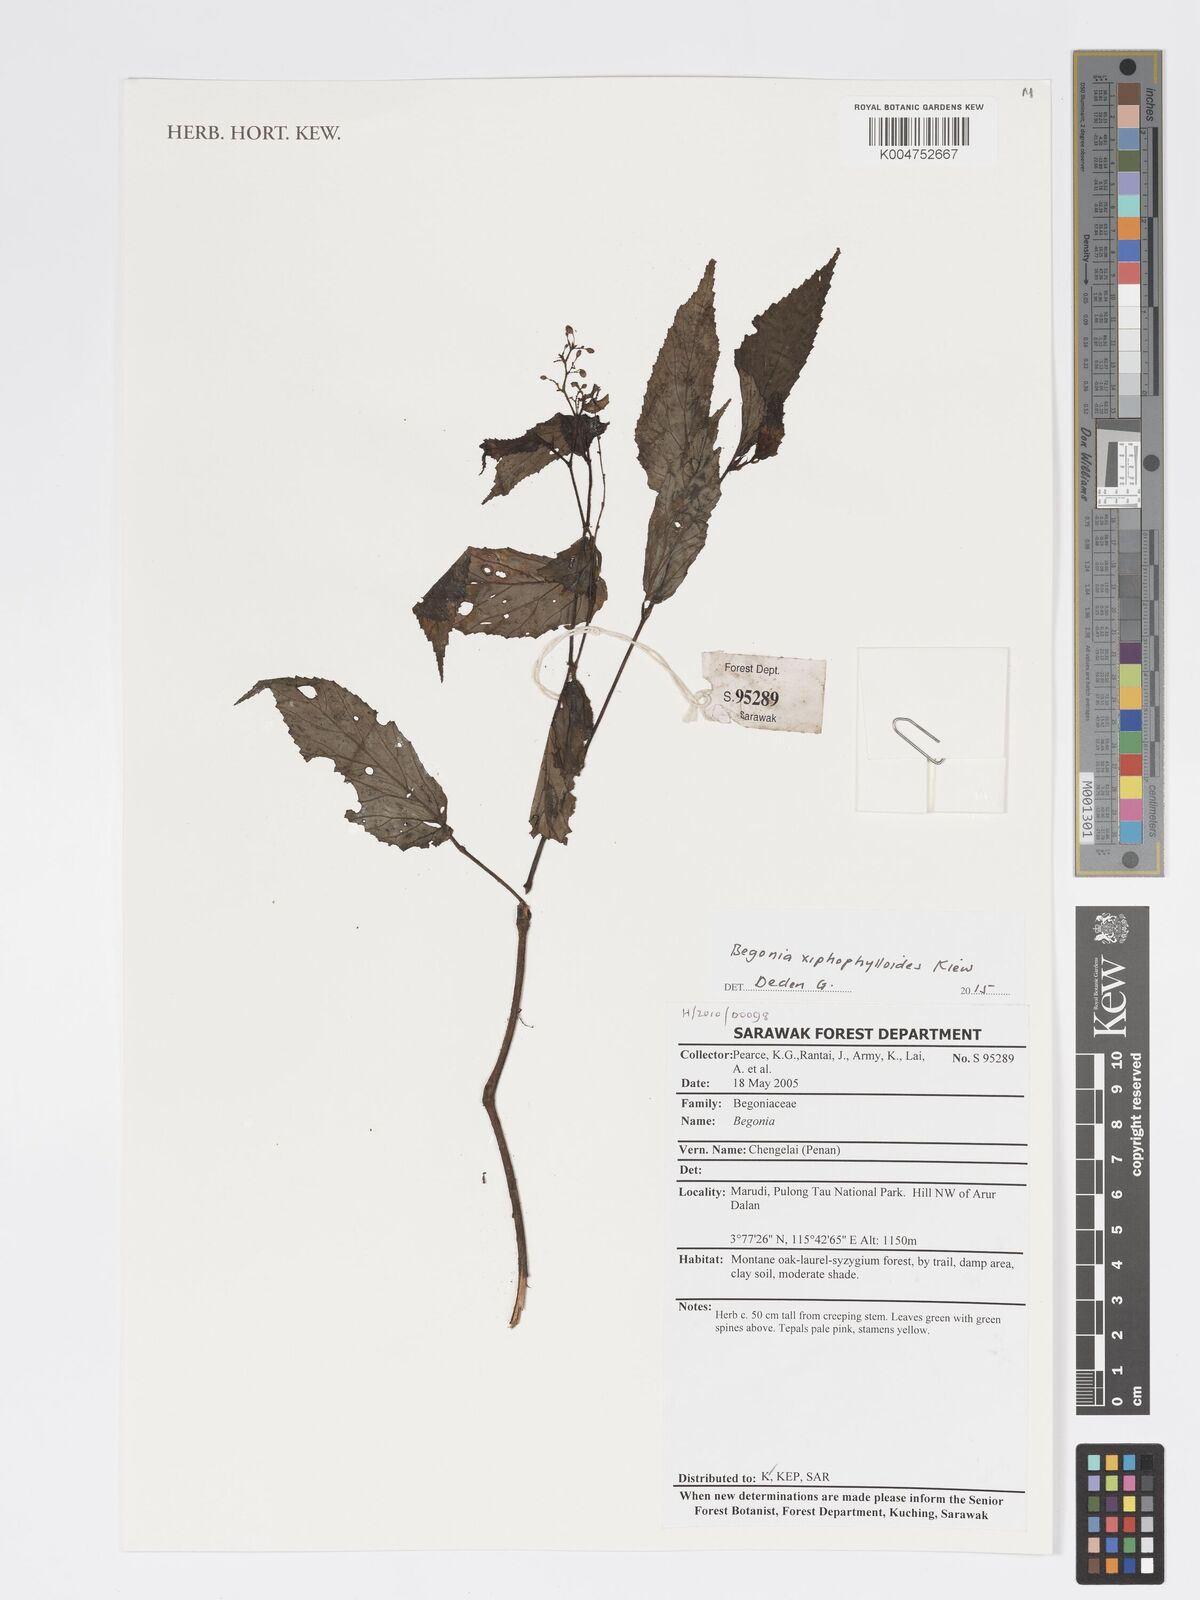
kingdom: Plantae
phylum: Tracheophyta
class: Magnoliopsida
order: Cucurbitales
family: Begoniaceae
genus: Begonia
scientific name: Begonia xiphophylloides
